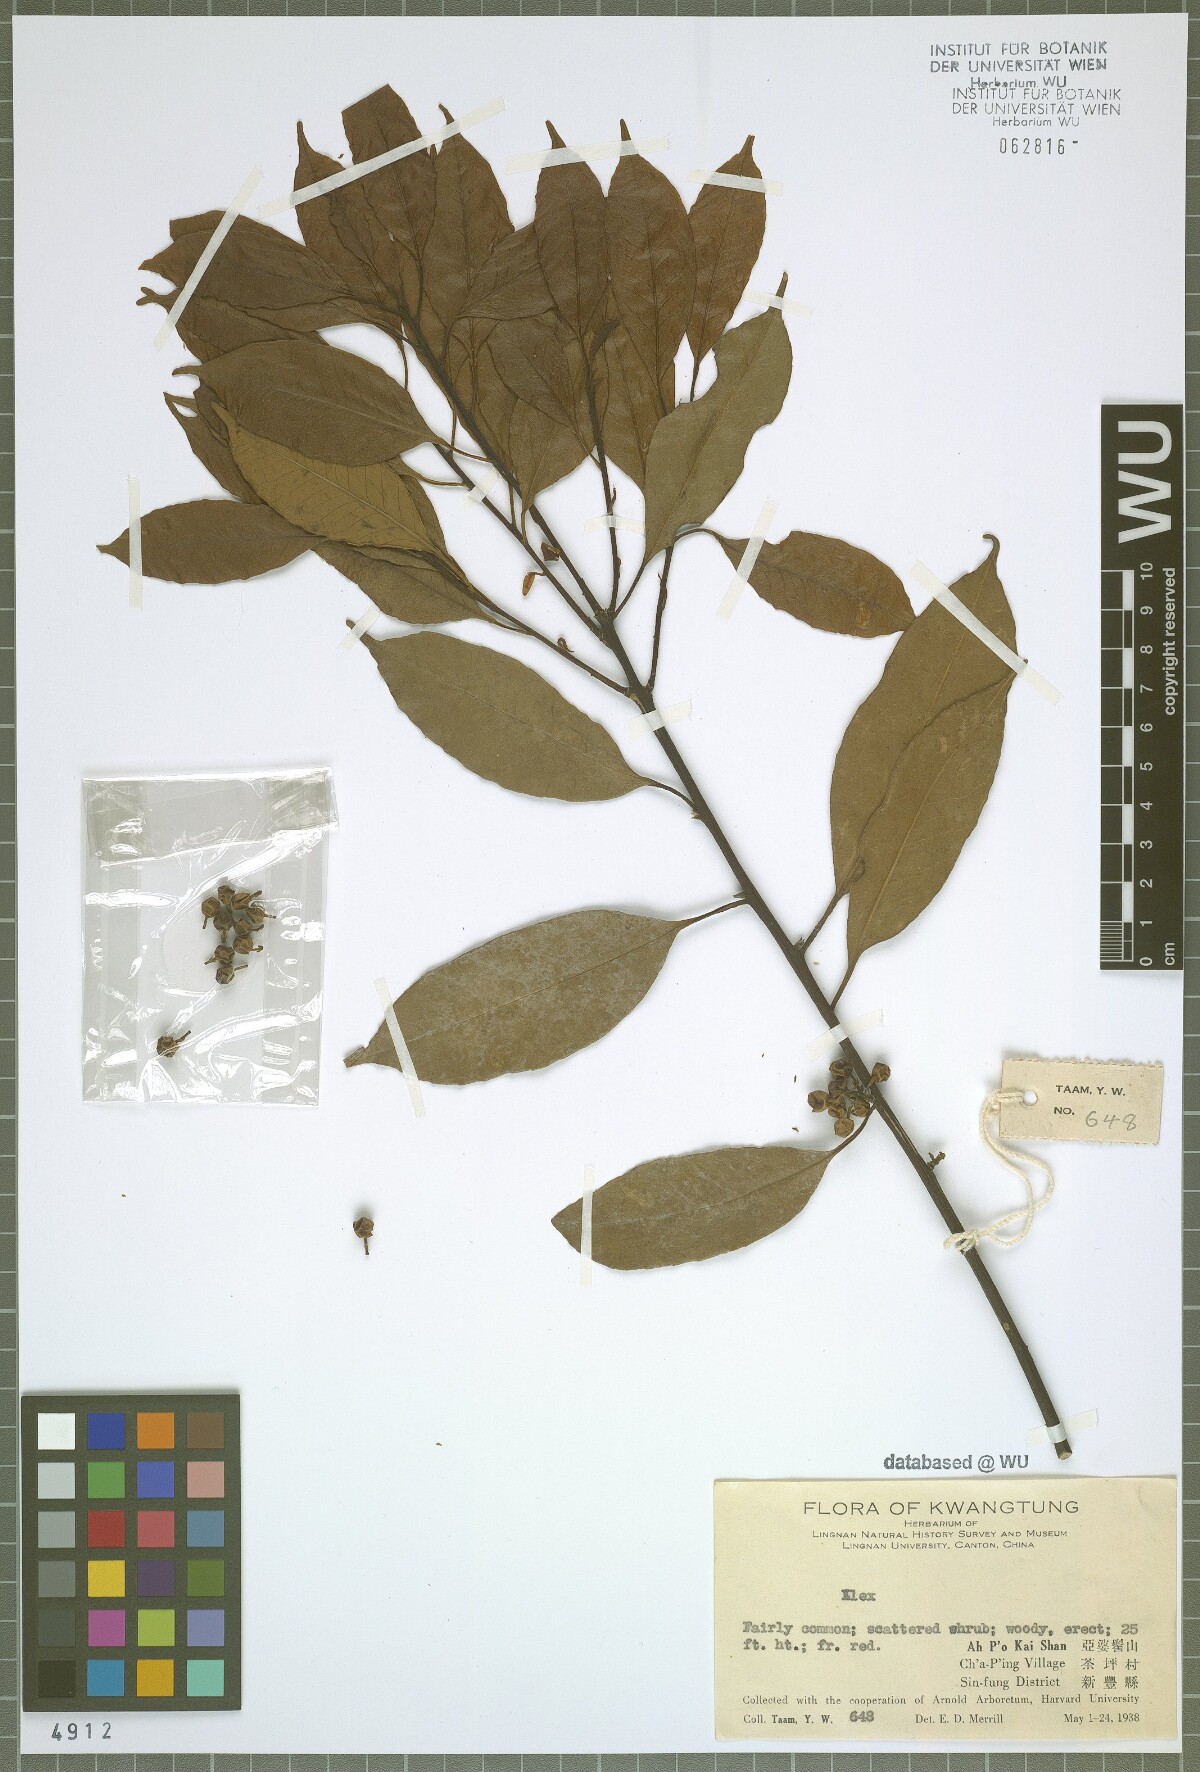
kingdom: Plantae
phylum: Tracheophyta
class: Magnoliopsida
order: Aquifoliales
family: Aquifoliaceae
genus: Ilex
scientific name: Ilex
